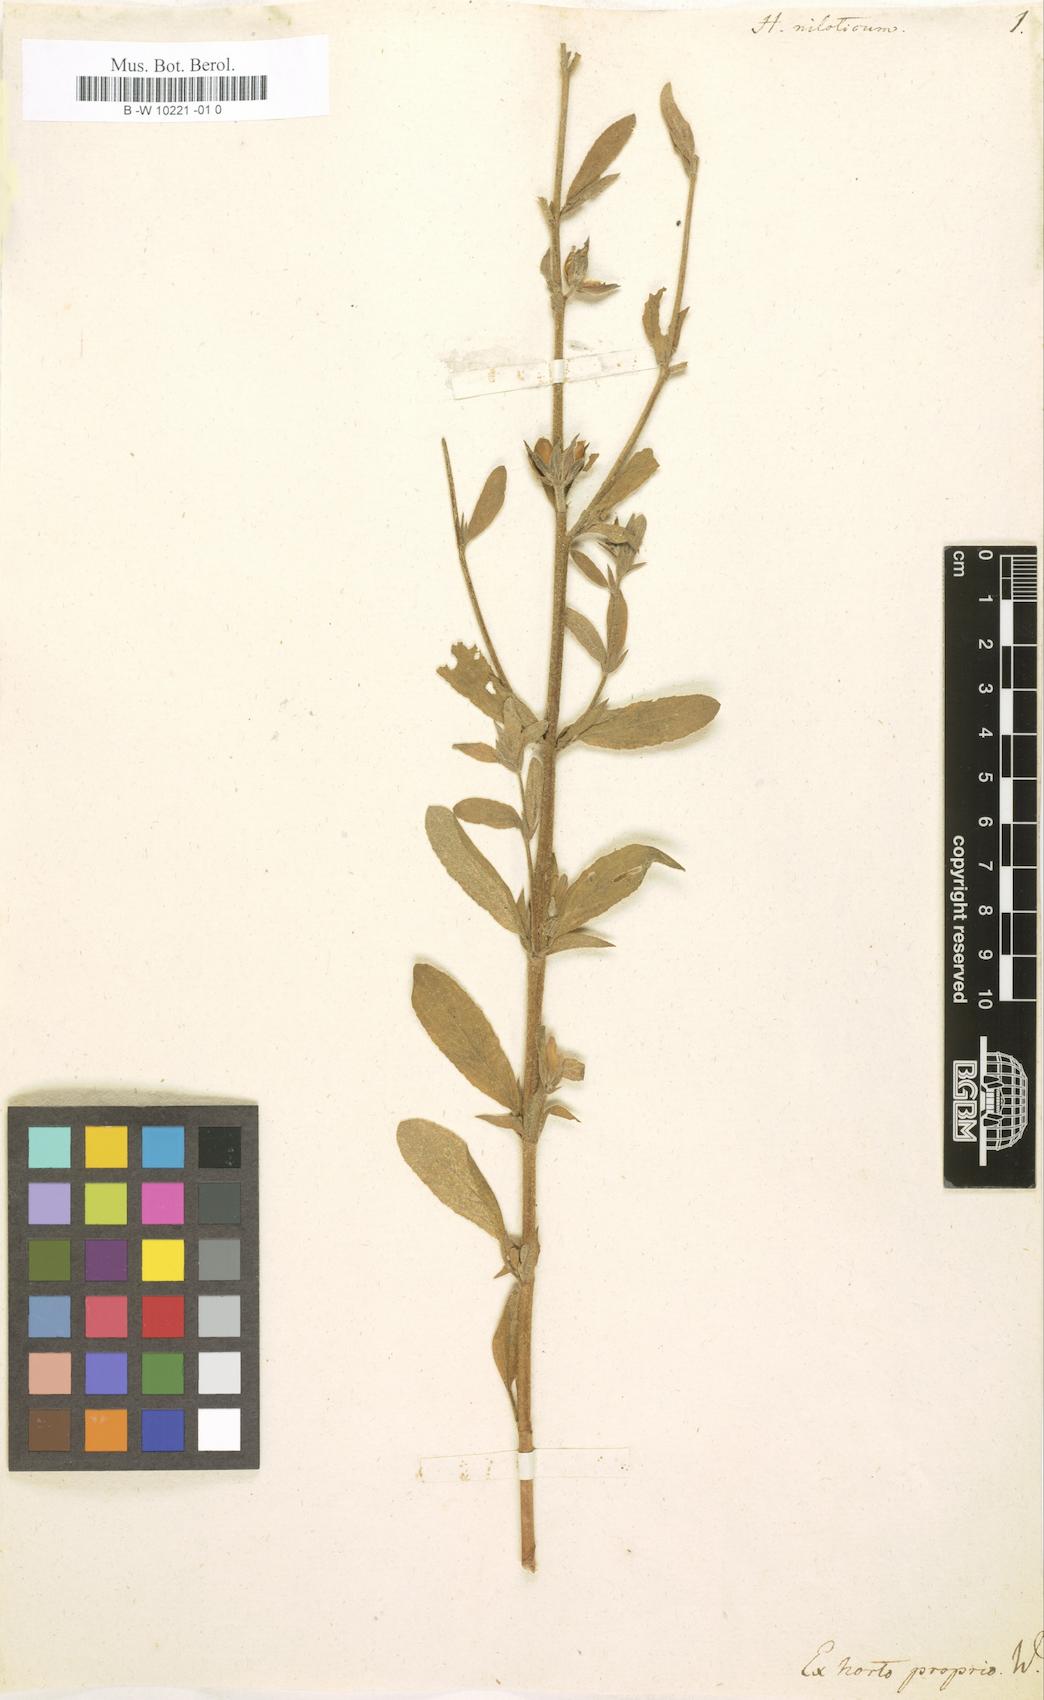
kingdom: Plantae
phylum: Tracheophyta
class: Magnoliopsida
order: Malvales
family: Cistaceae
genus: Helianthemum
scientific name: Helianthemum ledifolium
